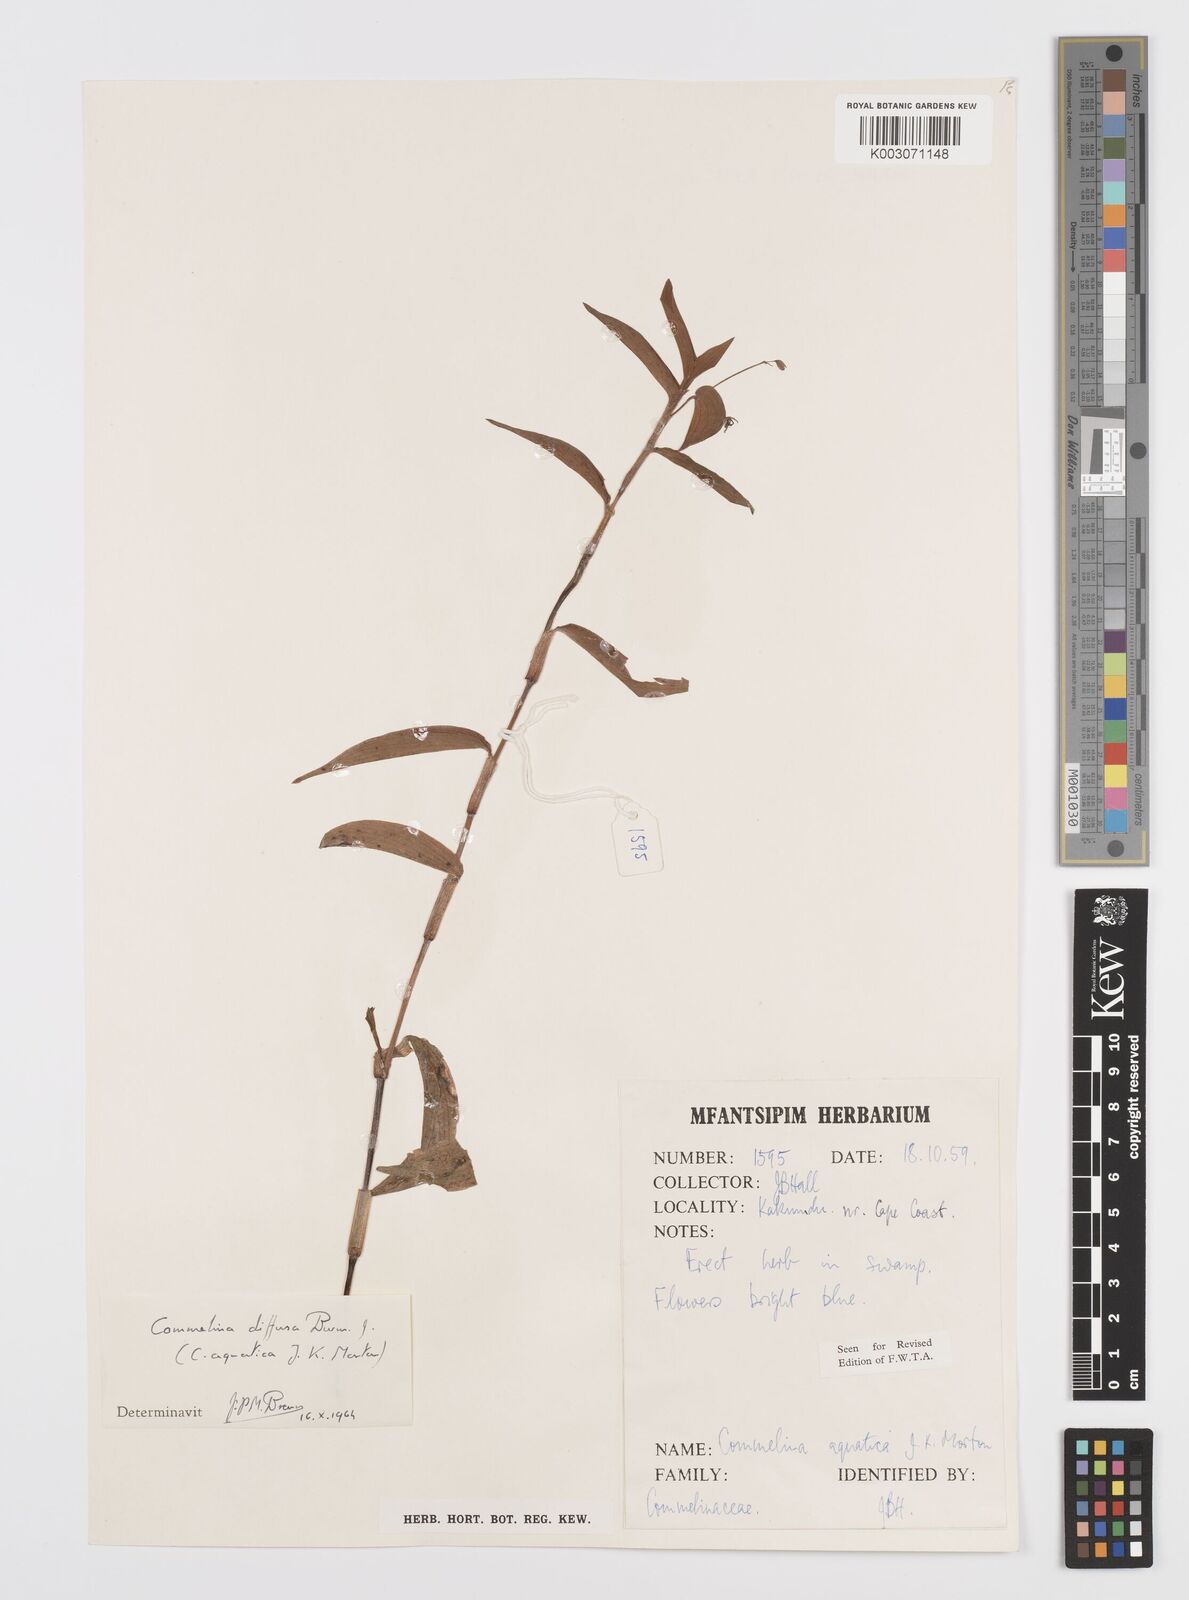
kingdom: Plantae
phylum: Tracheophyta
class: Liliopsida
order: Commelinales
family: Commelinaceae
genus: Commelina
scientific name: Commelina diffusa
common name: Climbing dayflower
